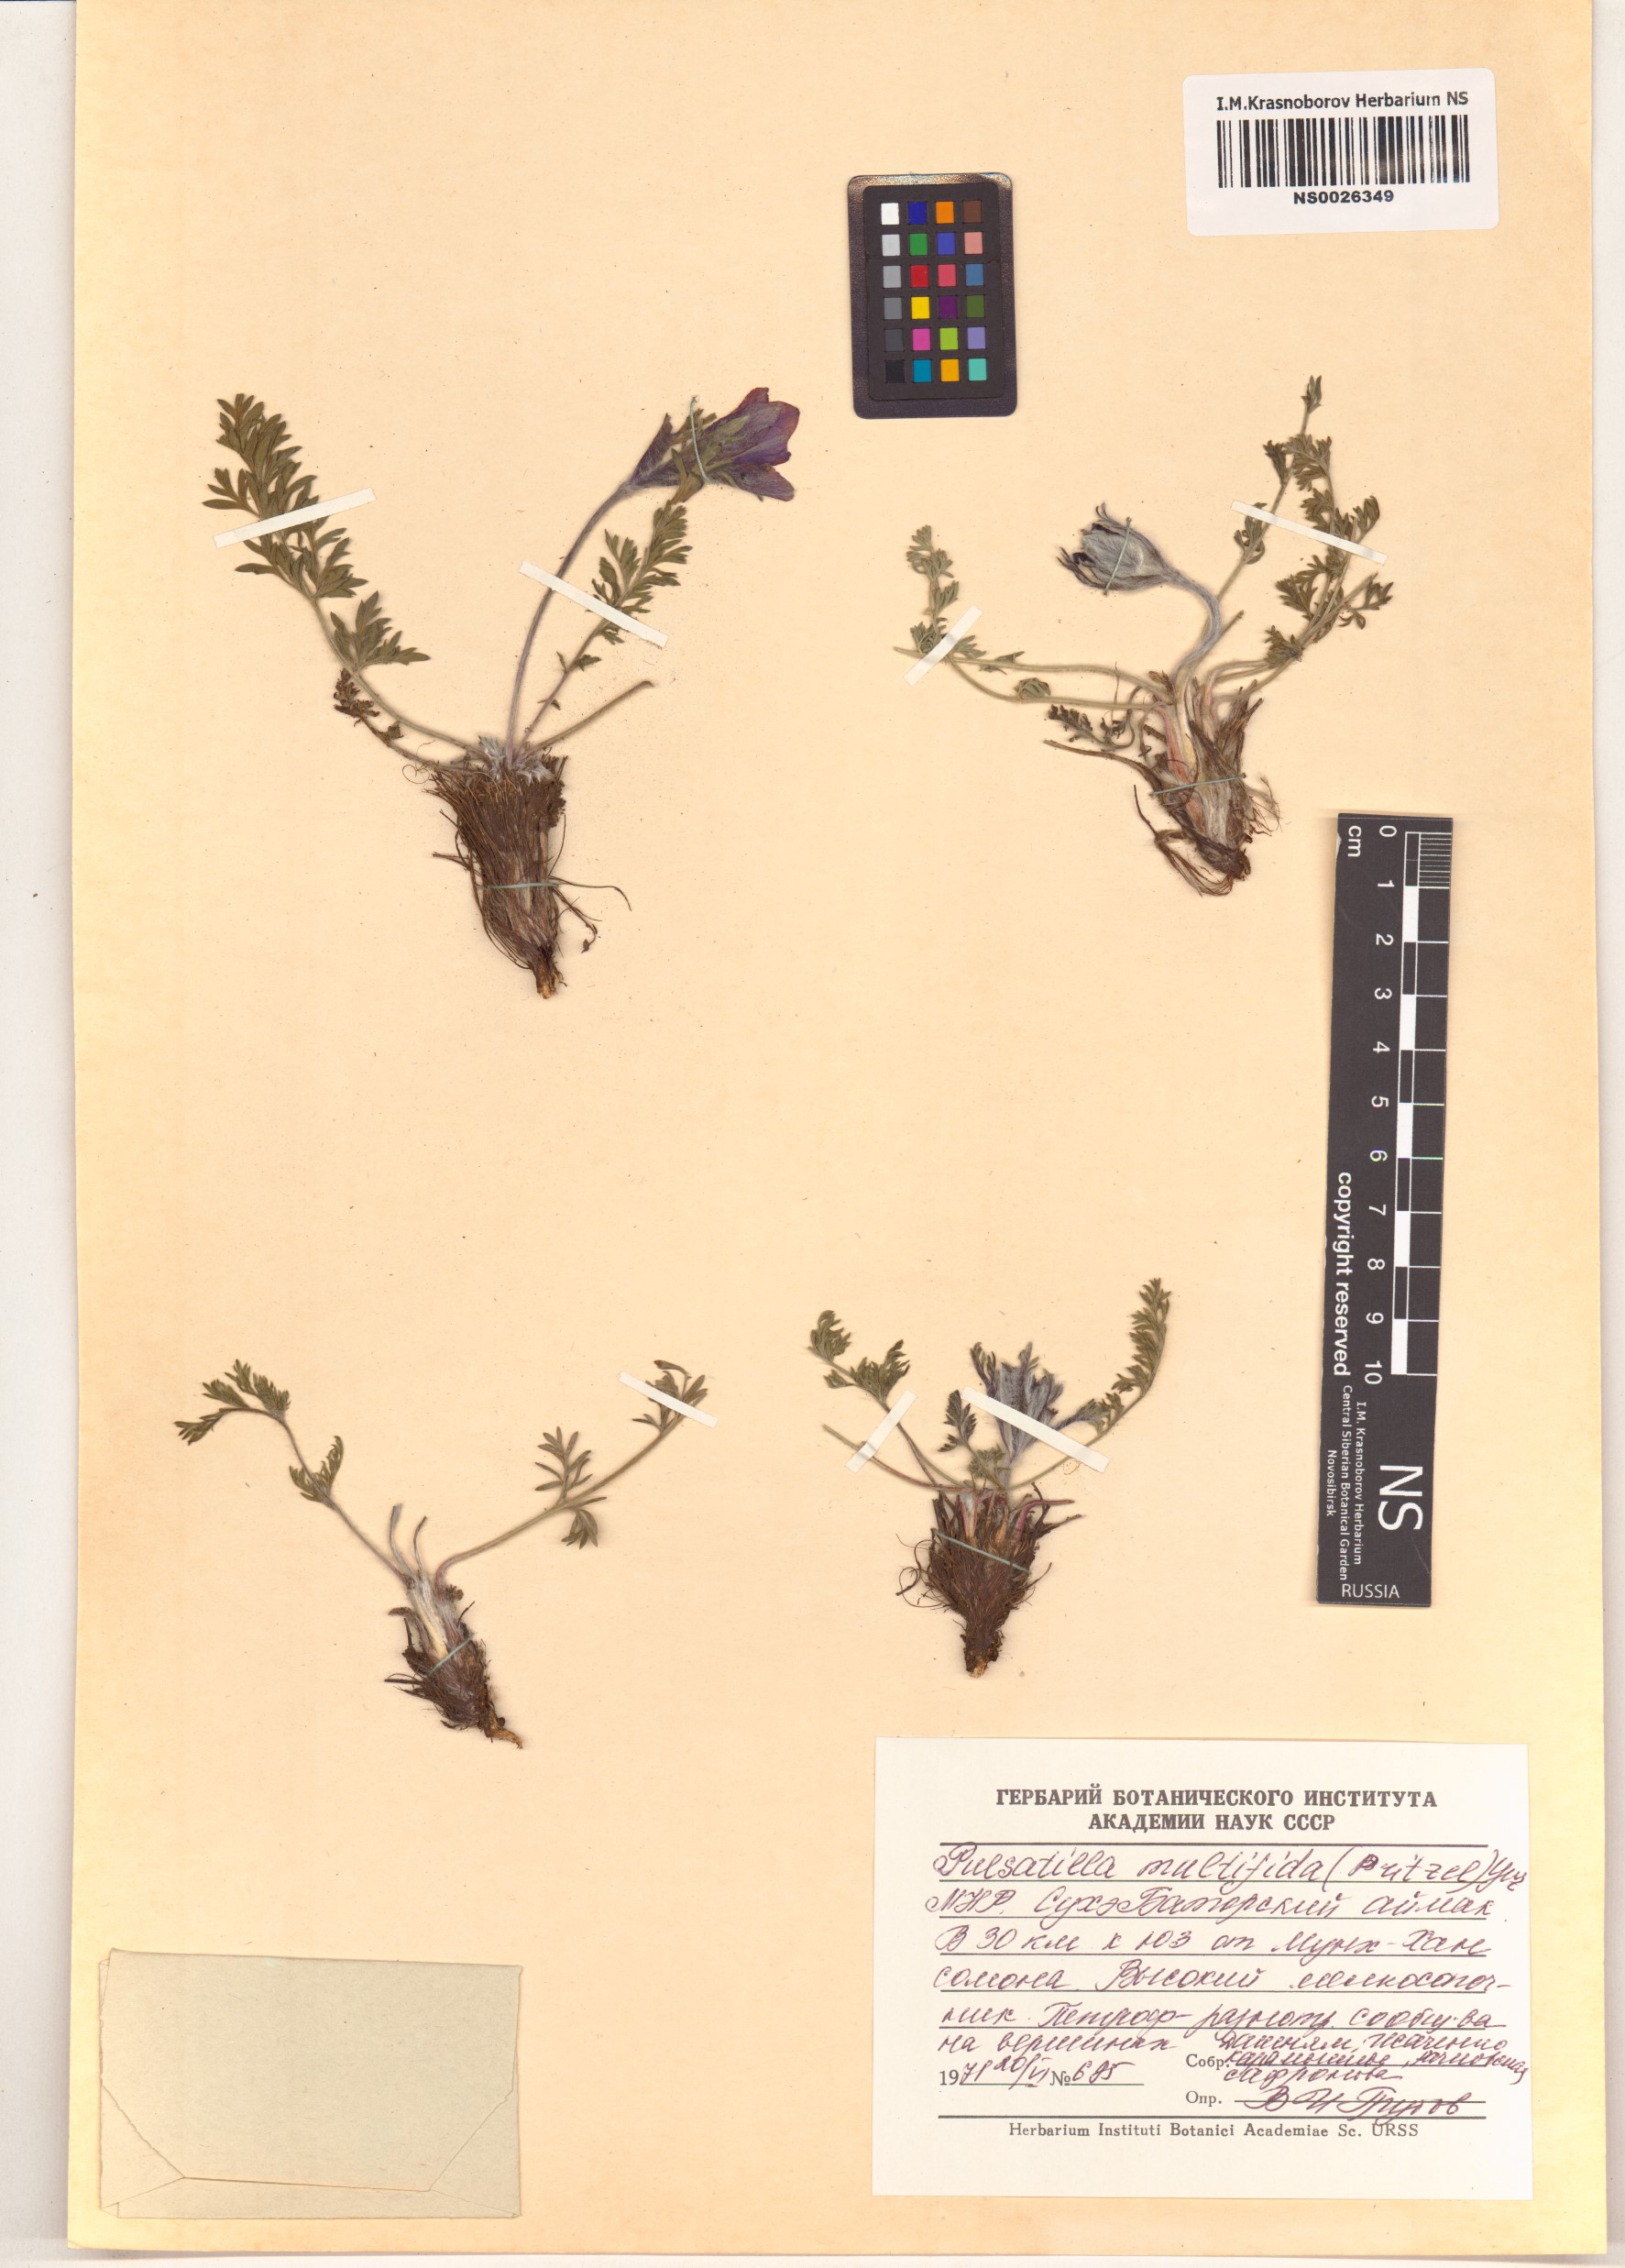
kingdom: Plantae
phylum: Tracheophyta
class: Magnoliopsida
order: Ranunculales
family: Ranunculaceae
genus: Pulsatilla
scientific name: Pulsatilla patens
